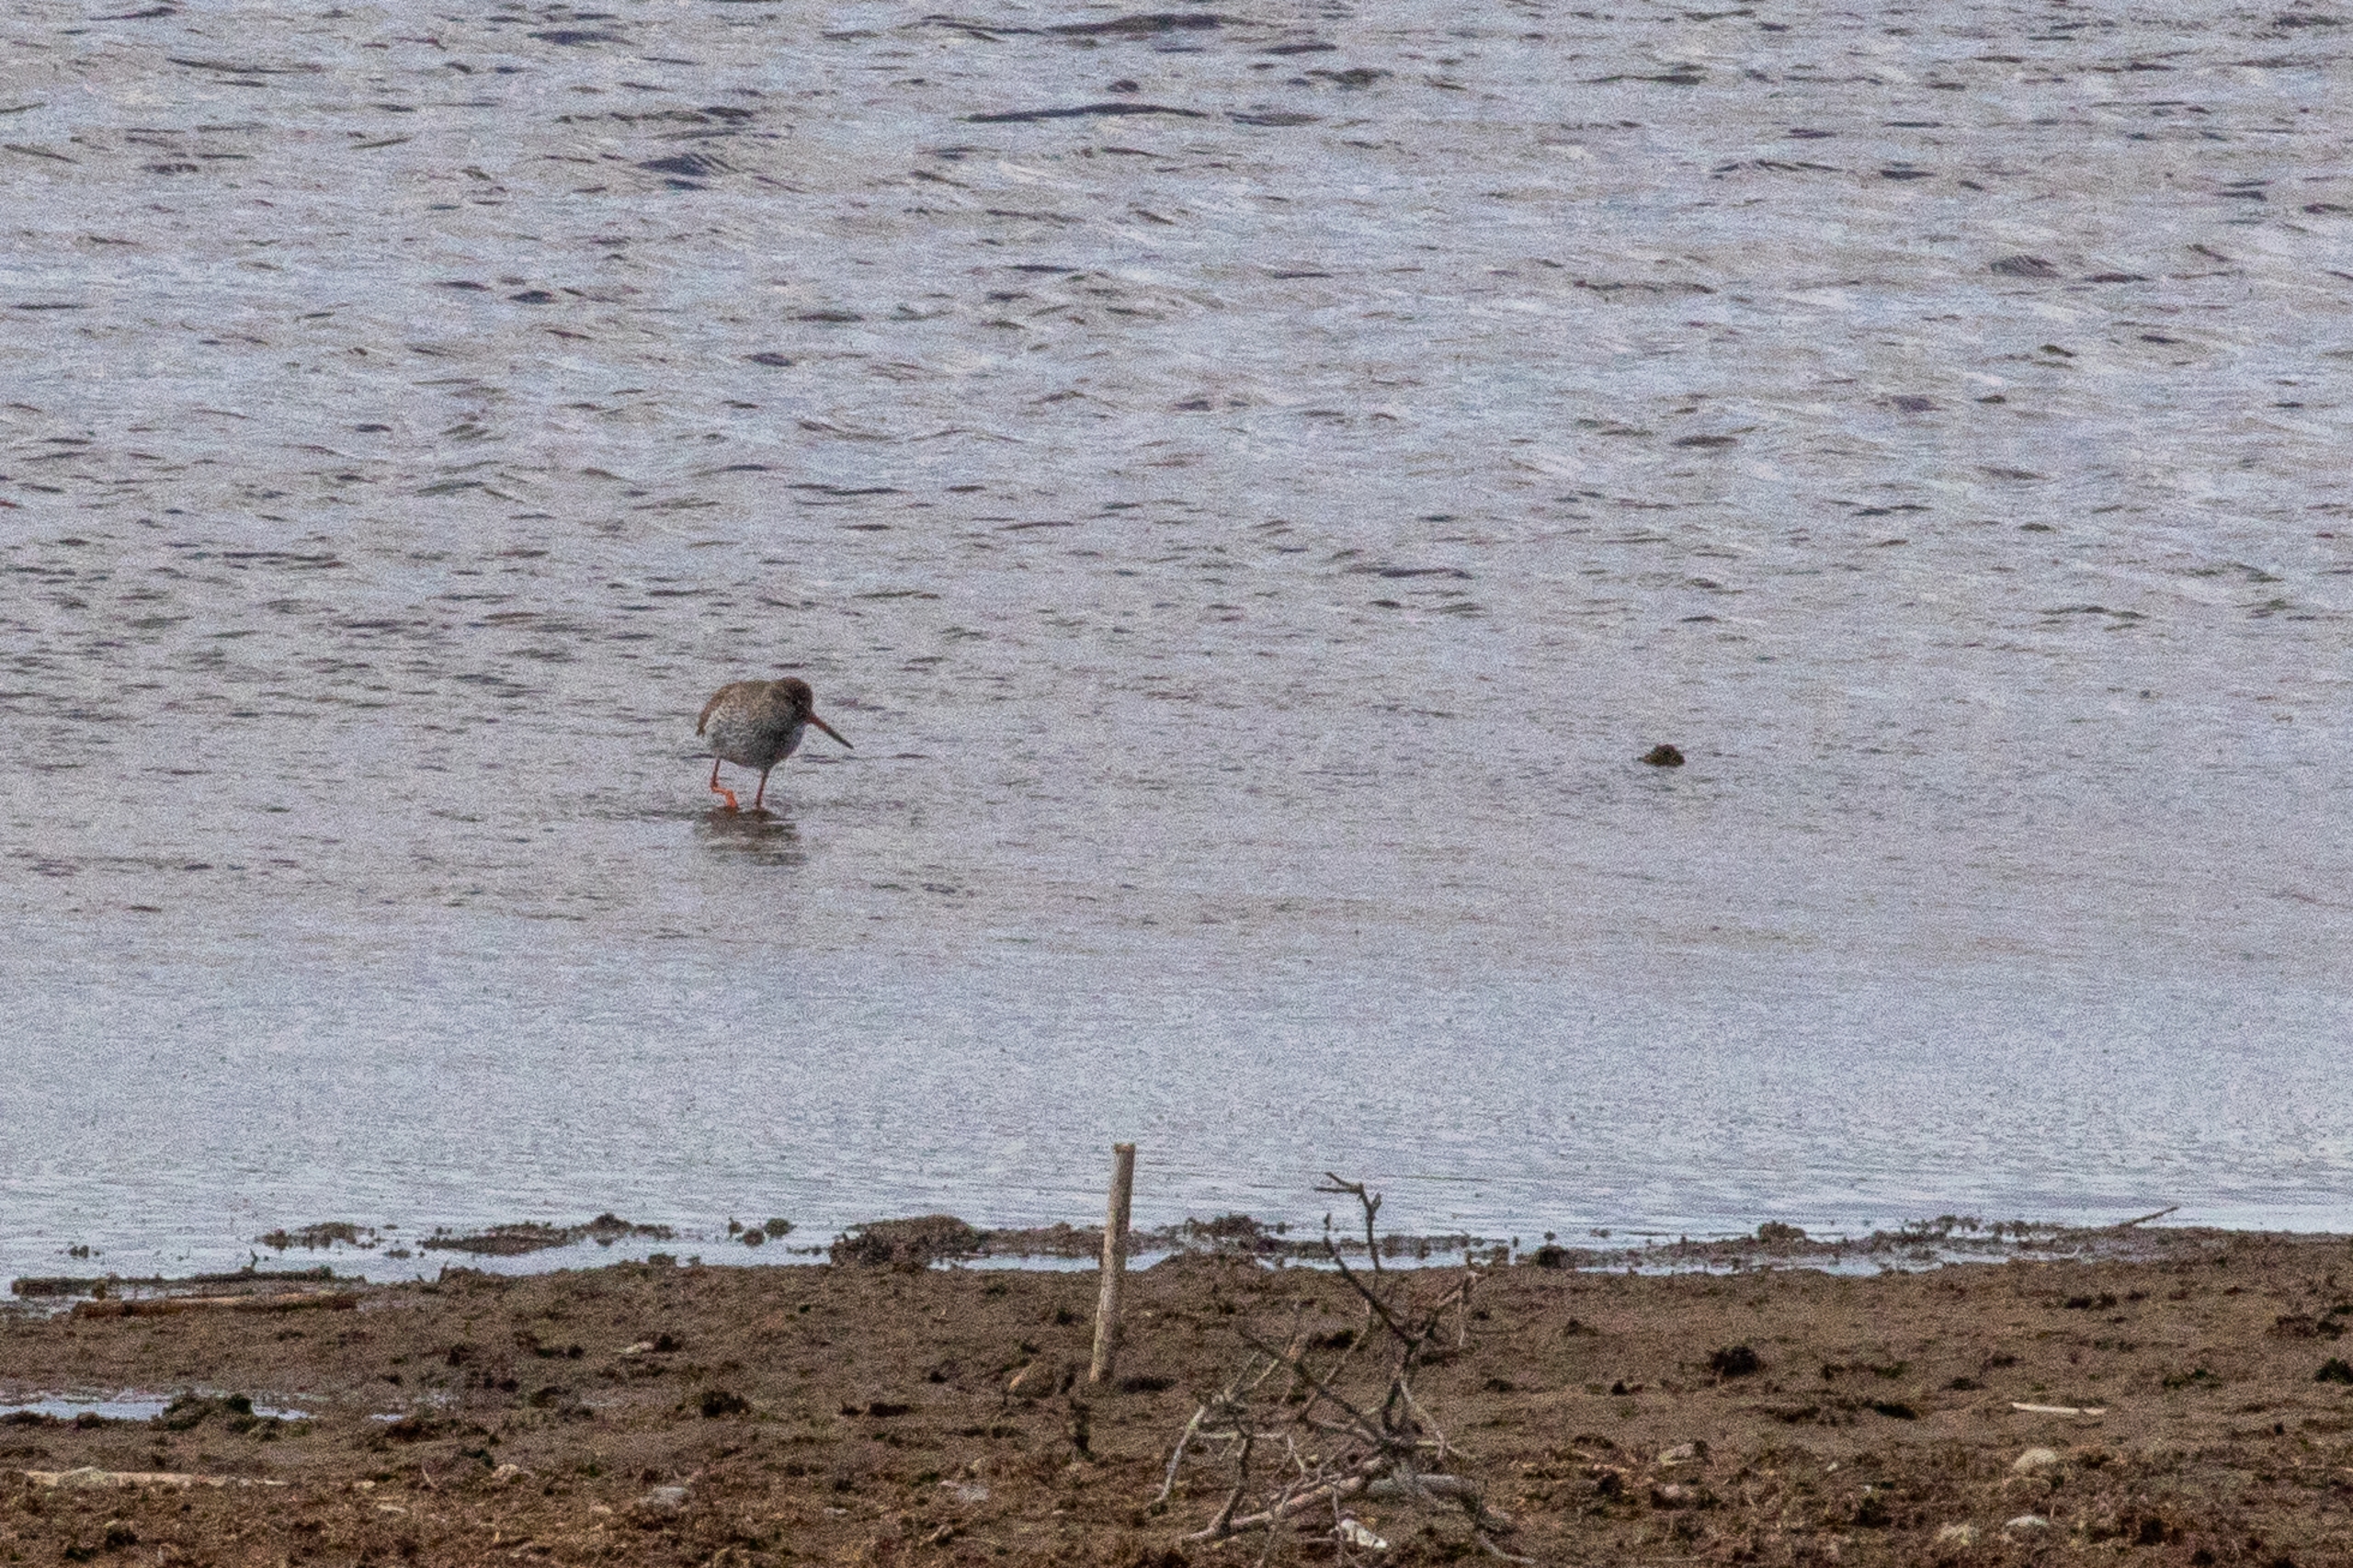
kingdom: Animalia
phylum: Chordata
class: Aves
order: Charadriiformes
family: Scolopacidae
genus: Tringa
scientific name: Tringa totanus
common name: Rødben
